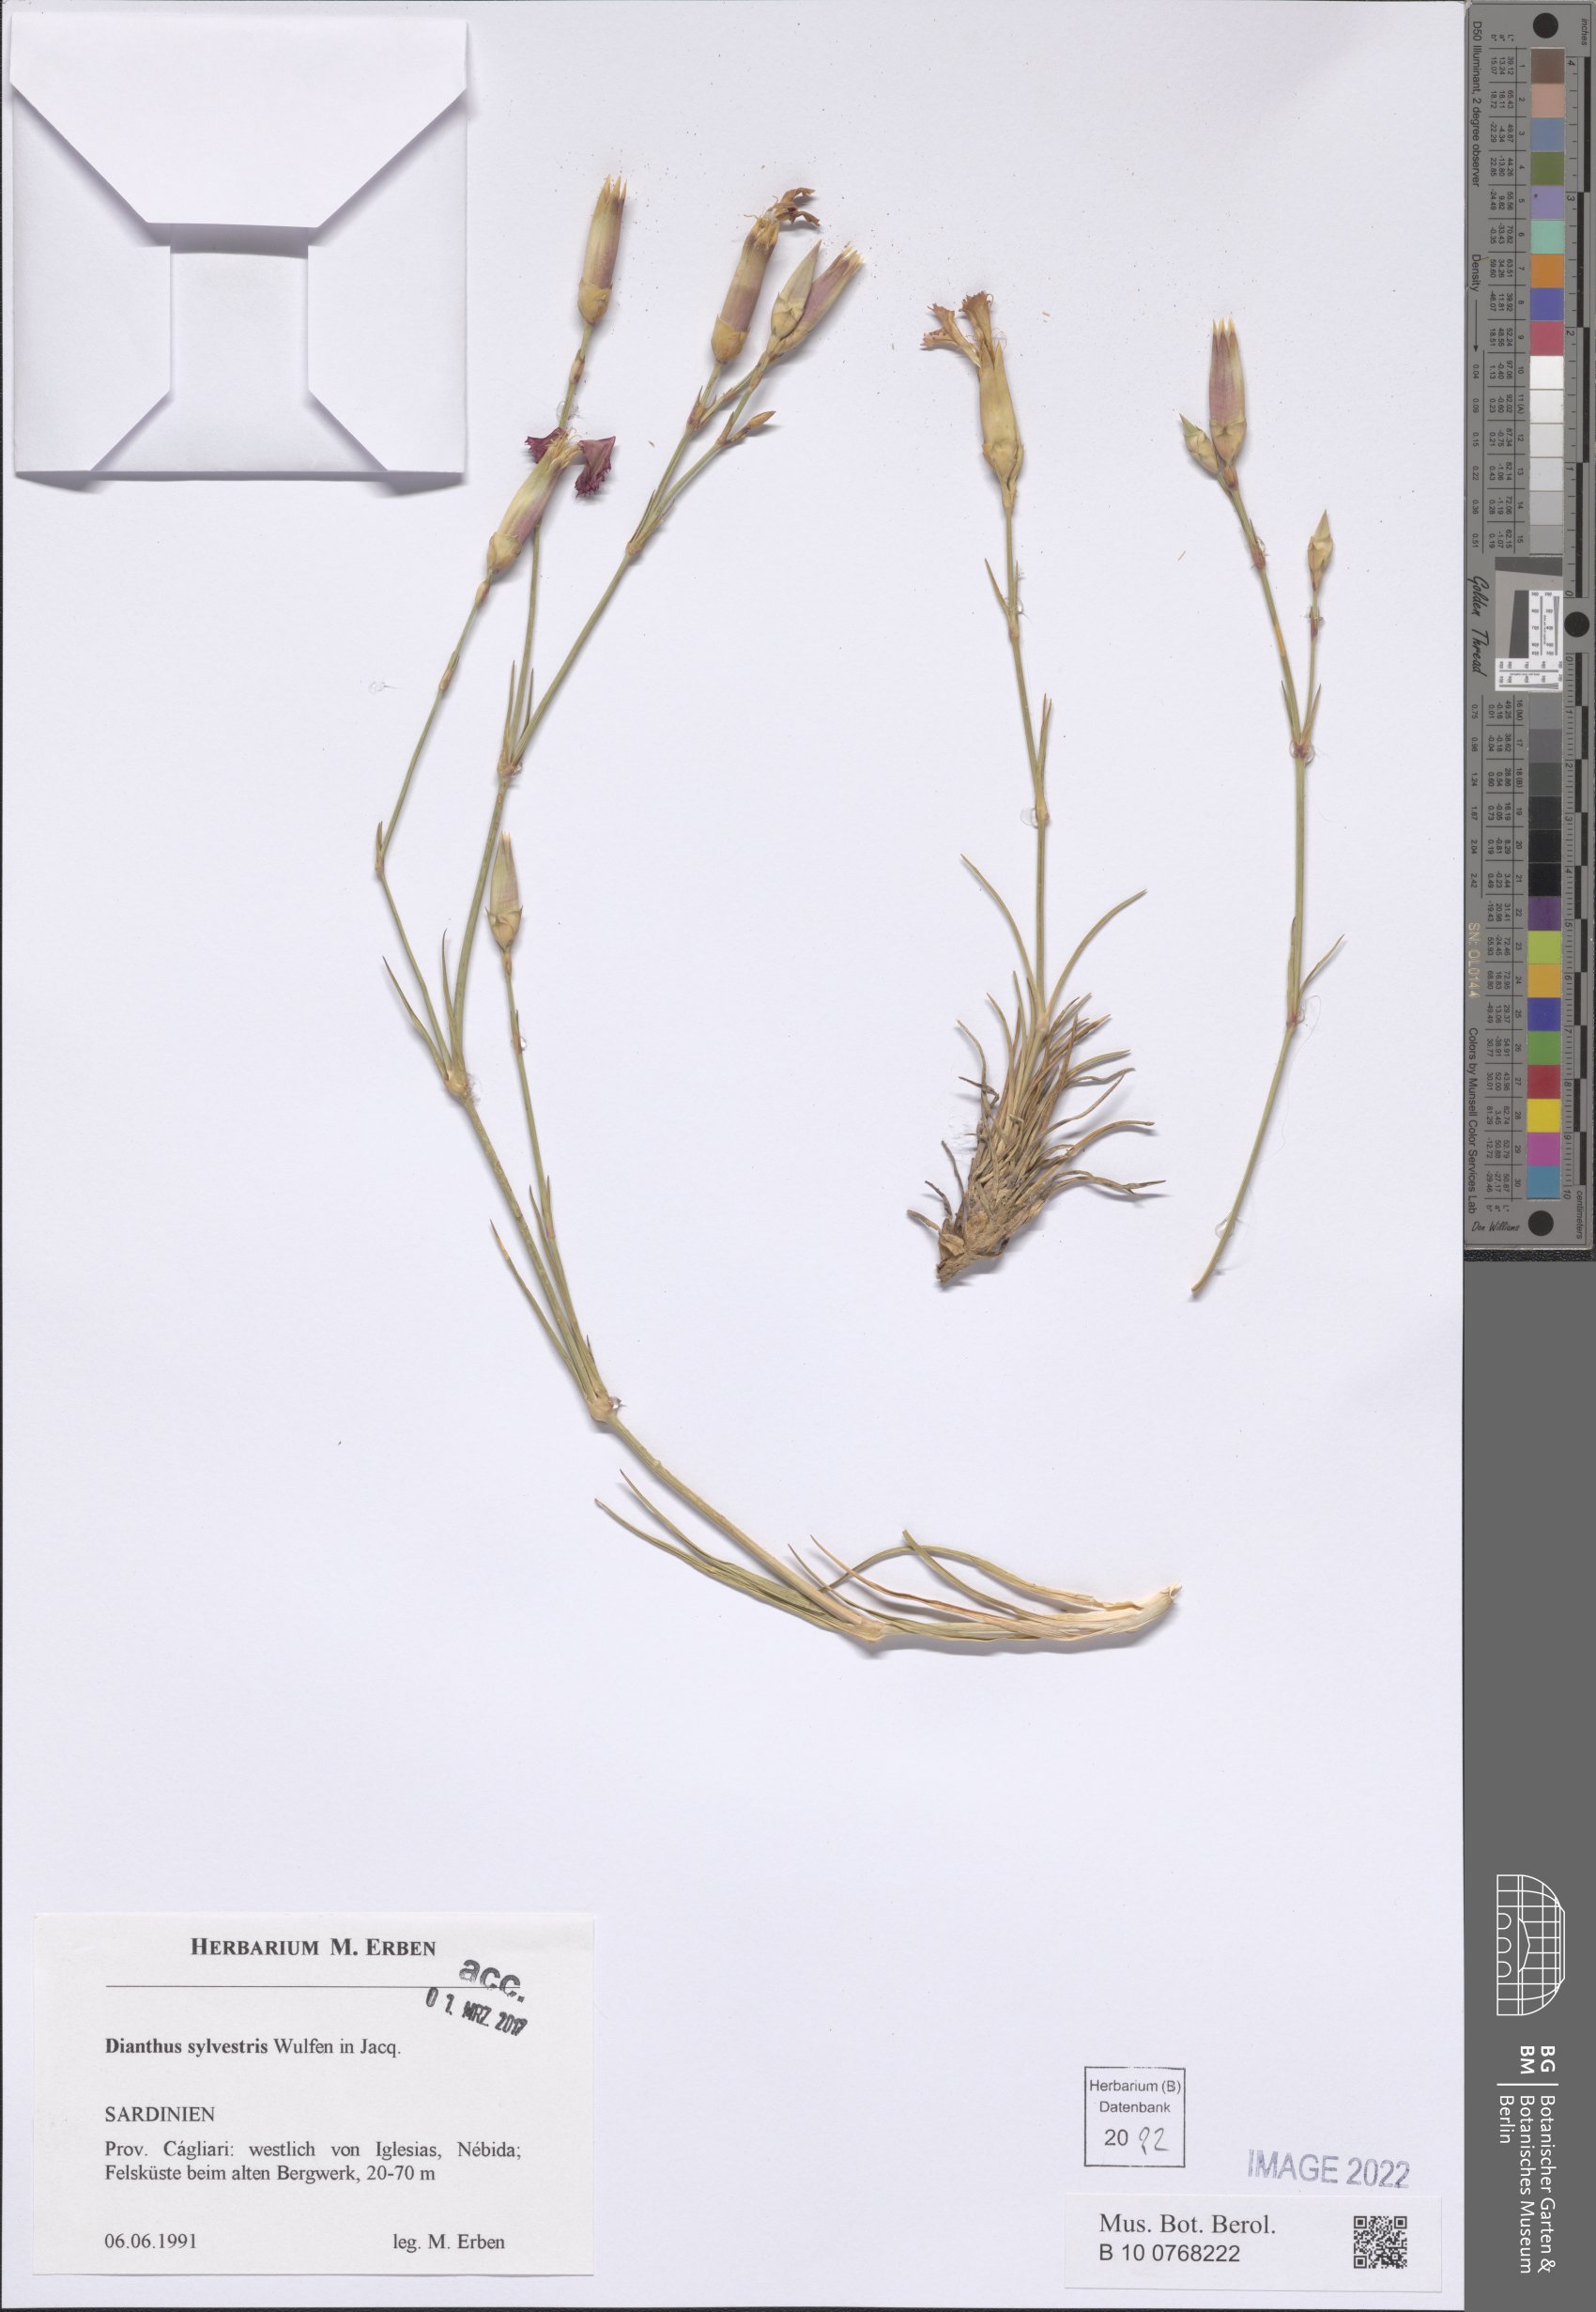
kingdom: Plantae
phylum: Tracheophyta
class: Magnoliopsida
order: Caryophyllales
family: Caryophyllaceae
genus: Dianthus
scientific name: Dianthus sylvestris
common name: Wood pink
